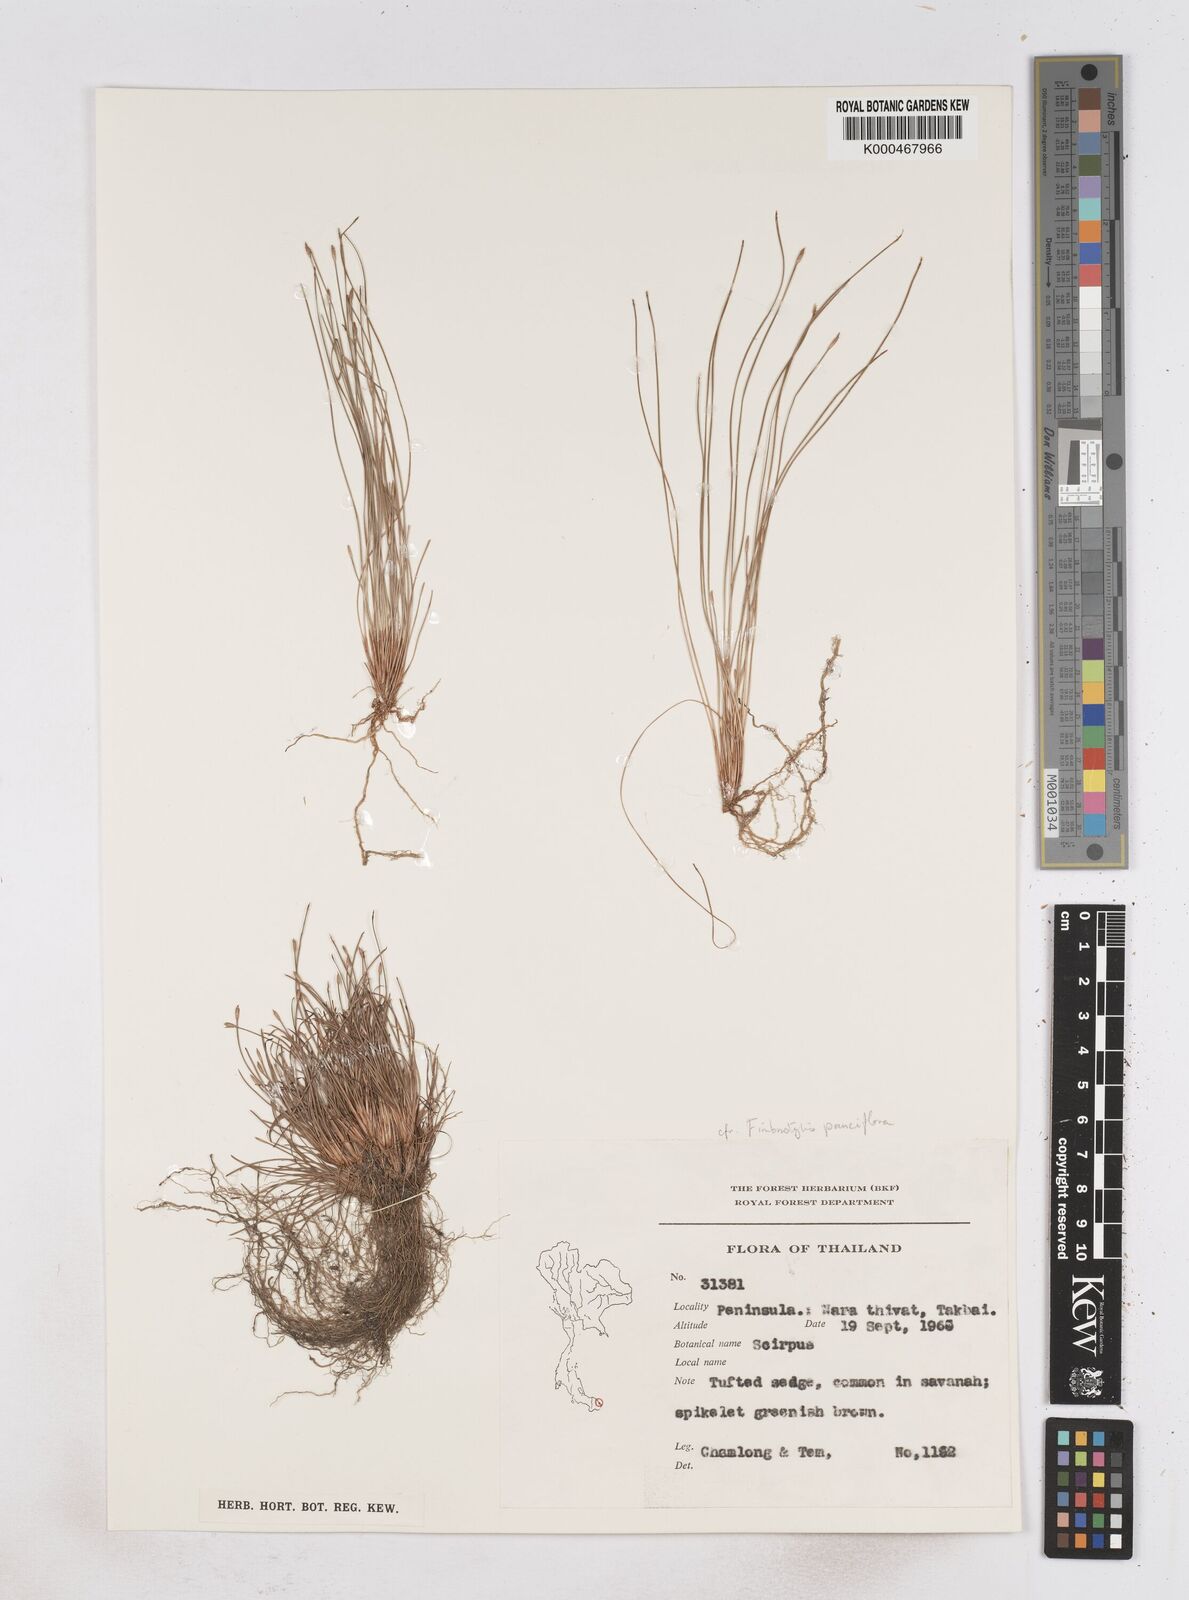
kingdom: Plantae
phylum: Tracheophyta
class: Liliopsida
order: Poales
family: Cyperaceae
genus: Fimbristylis
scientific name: Fimbristylis pauciflora
